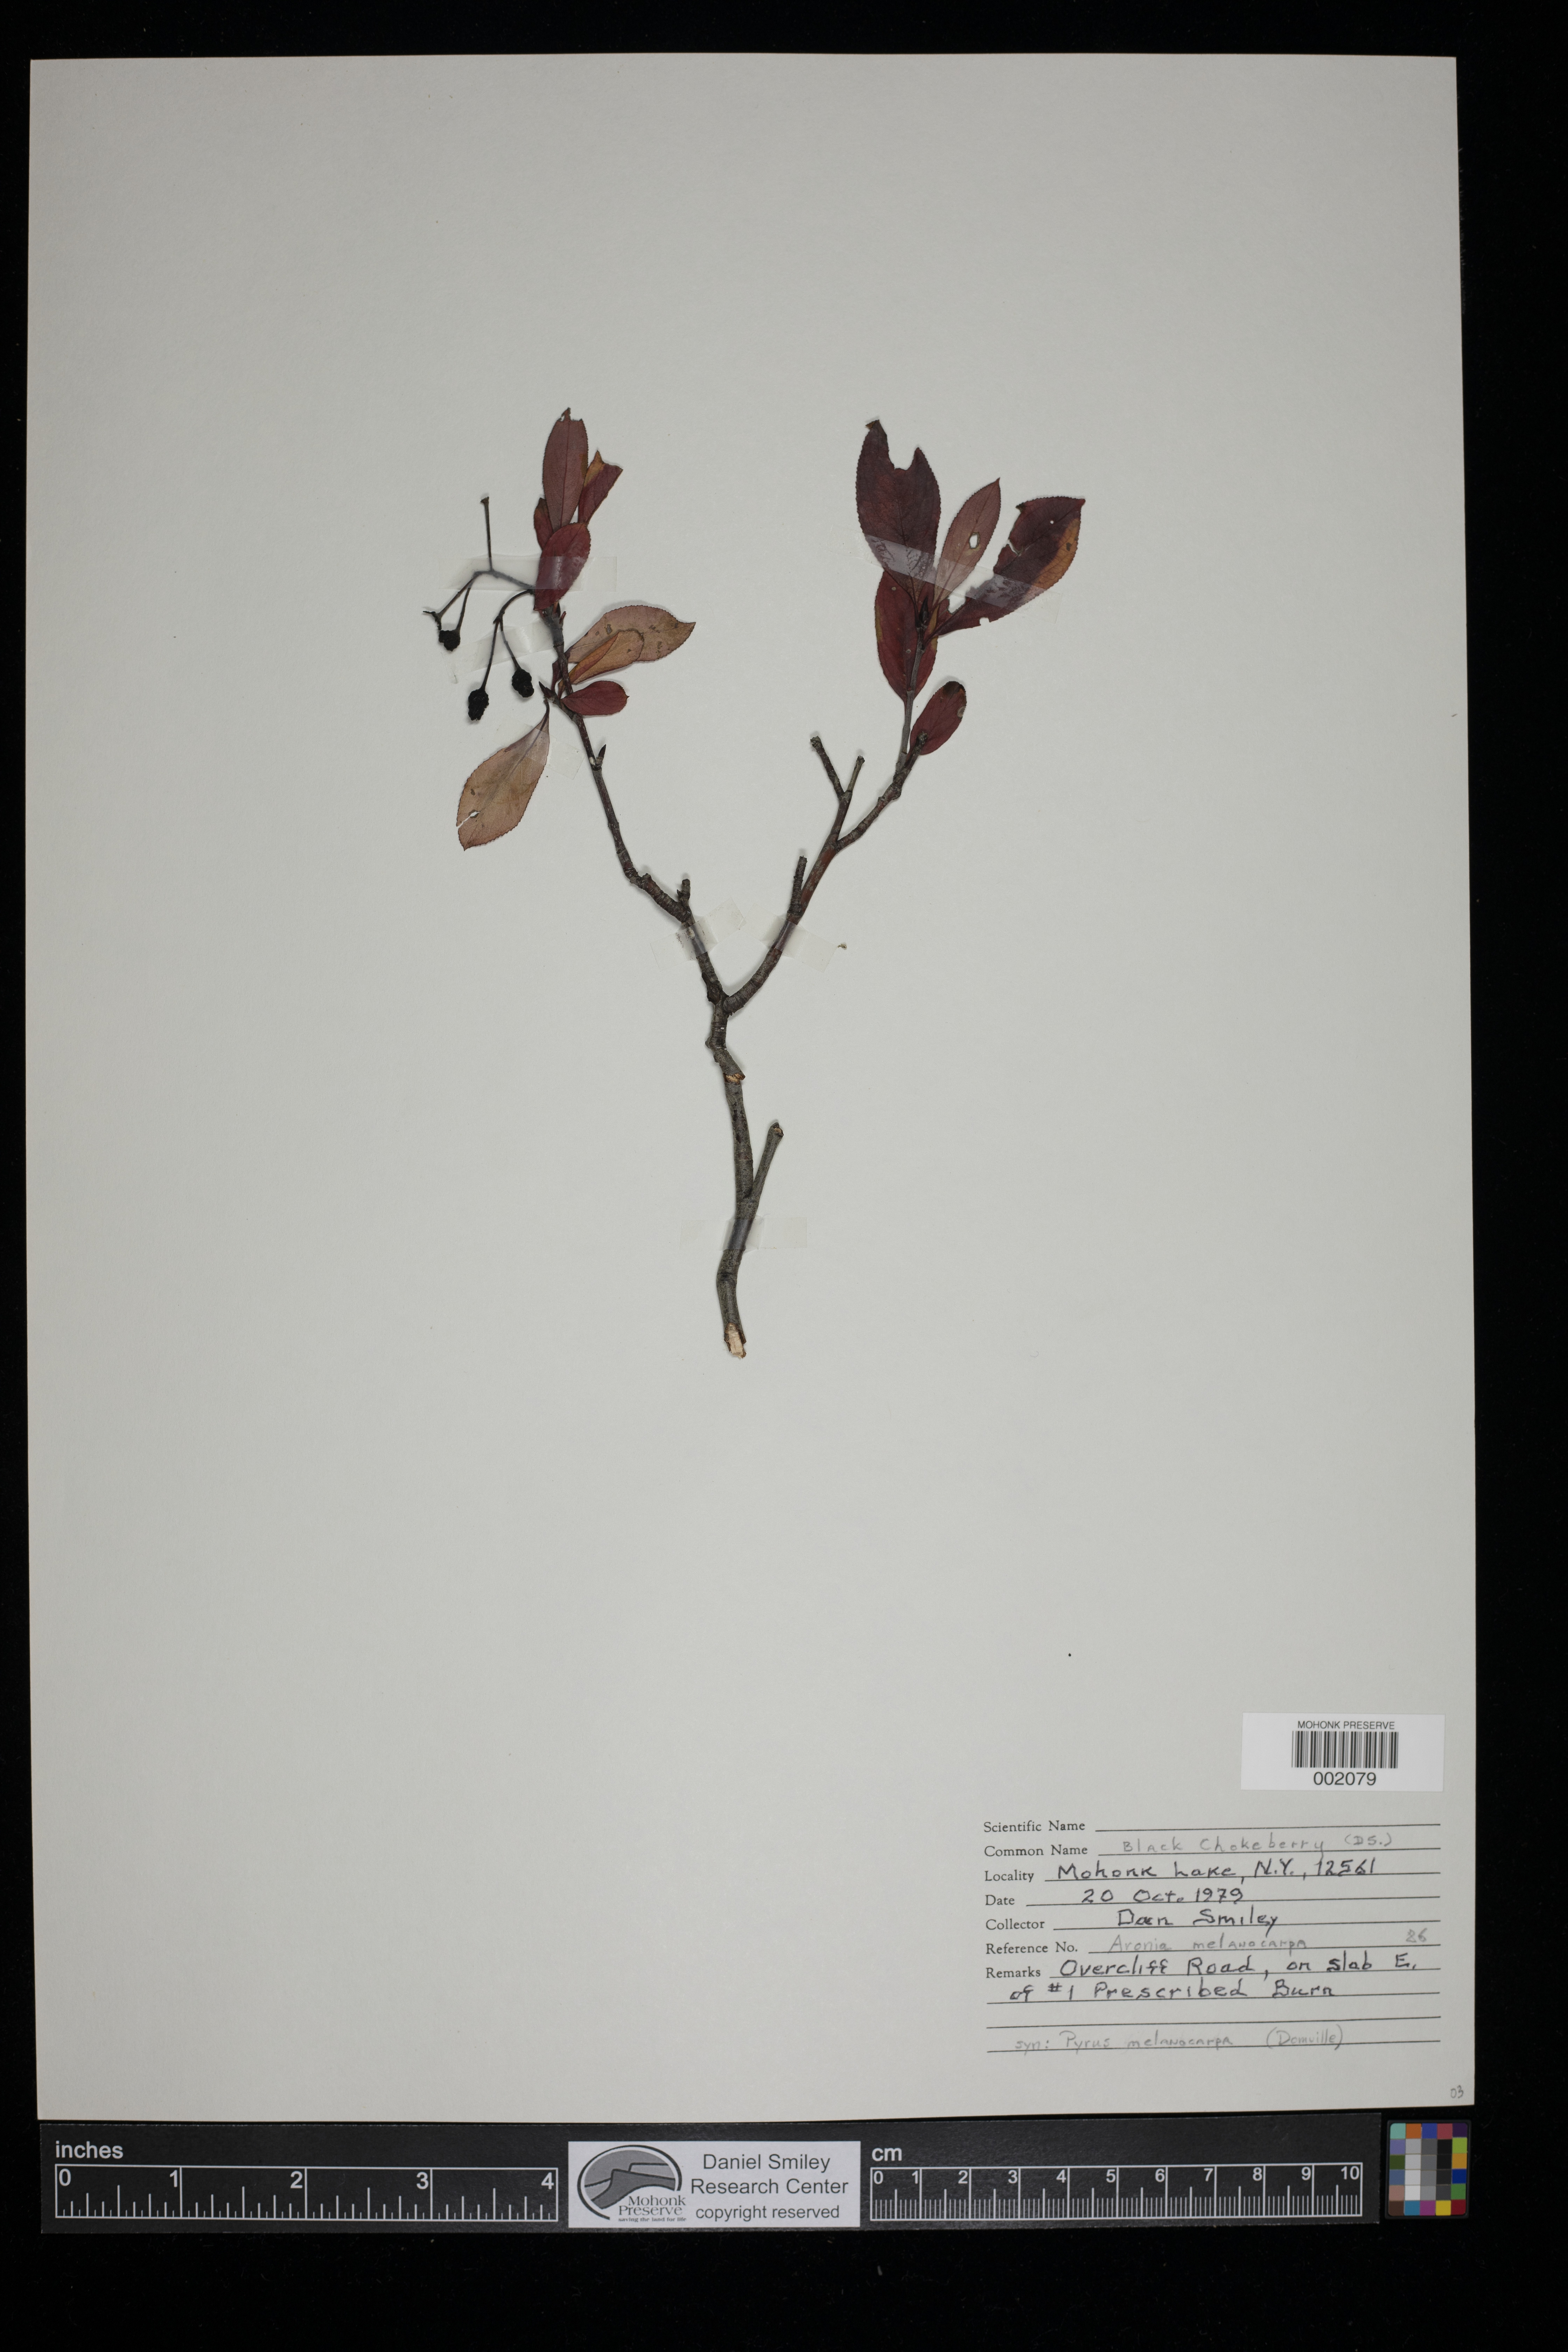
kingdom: Plantae
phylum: Tracheophyta
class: Magnoliopsida
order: Rosales
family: Rosaceae
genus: Aronia
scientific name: Aronia melanocarpa
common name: Black chokeberry
